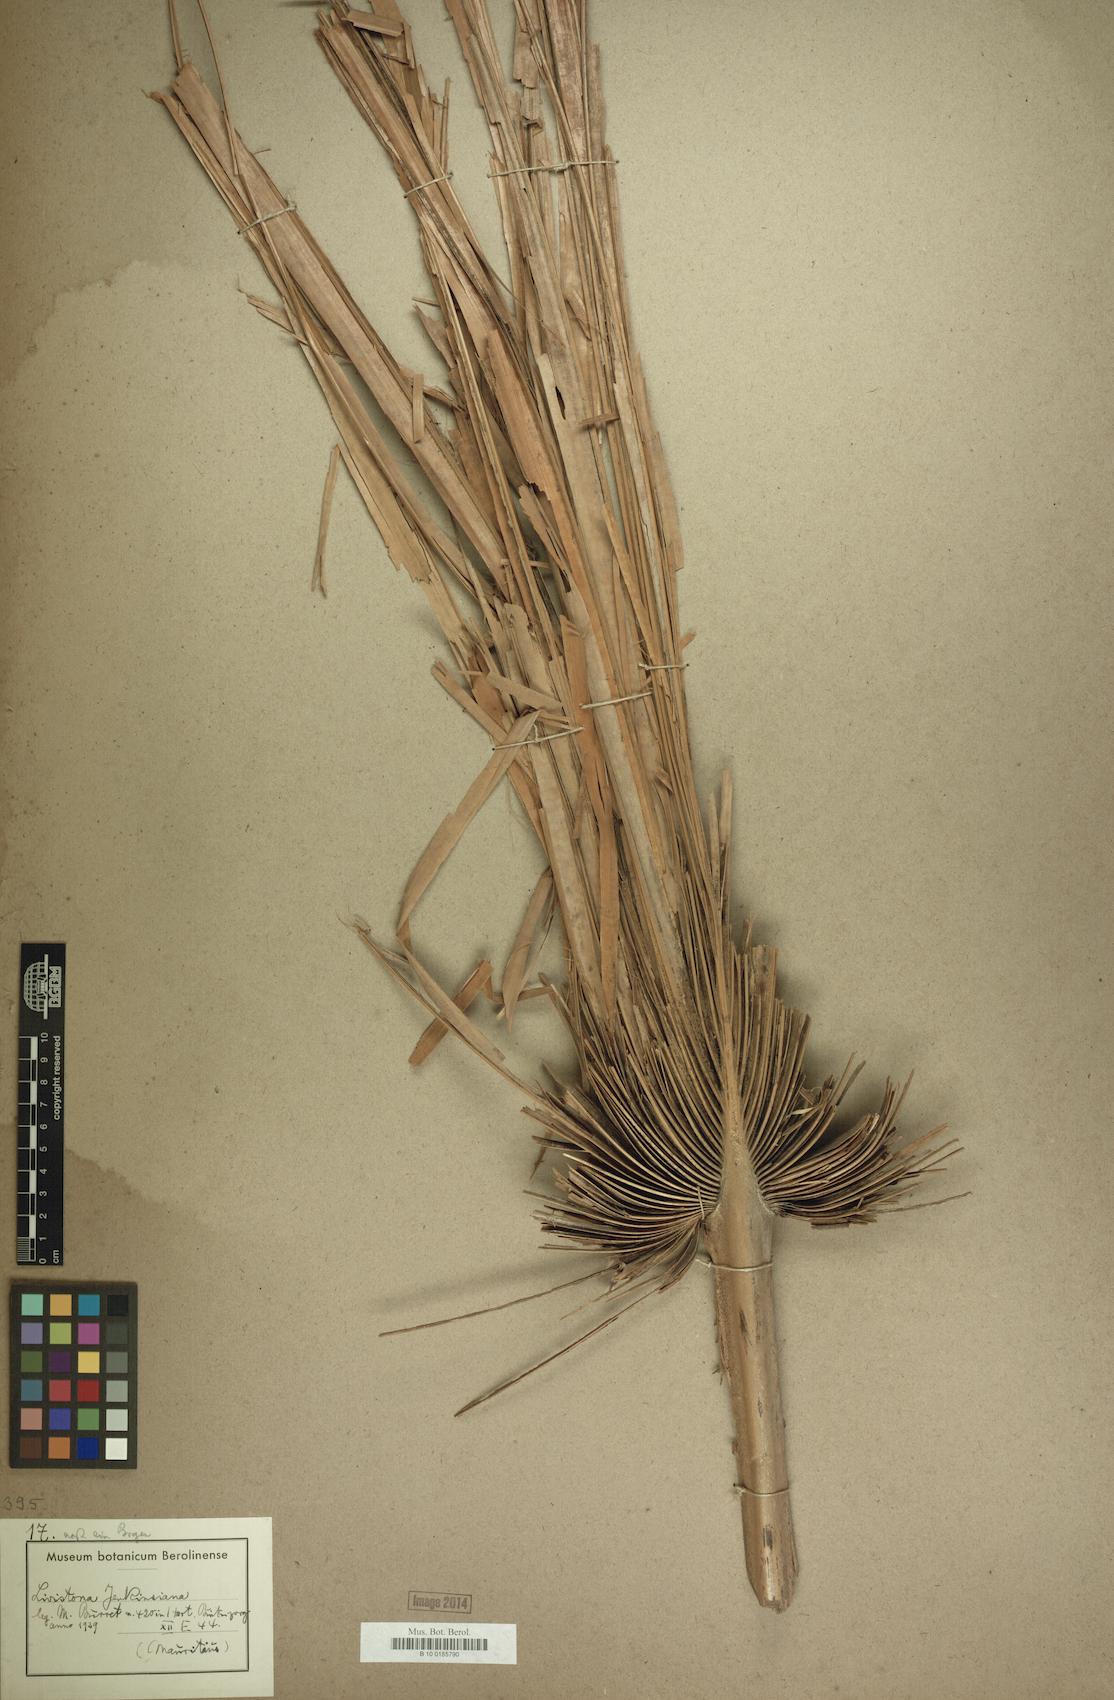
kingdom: Plantae
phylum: Tracheophyta
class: Liliopsida
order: Arecales
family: Arecaceae
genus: Livistona
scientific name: Livistona jenkinsiana
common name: Himalayan fan palm
